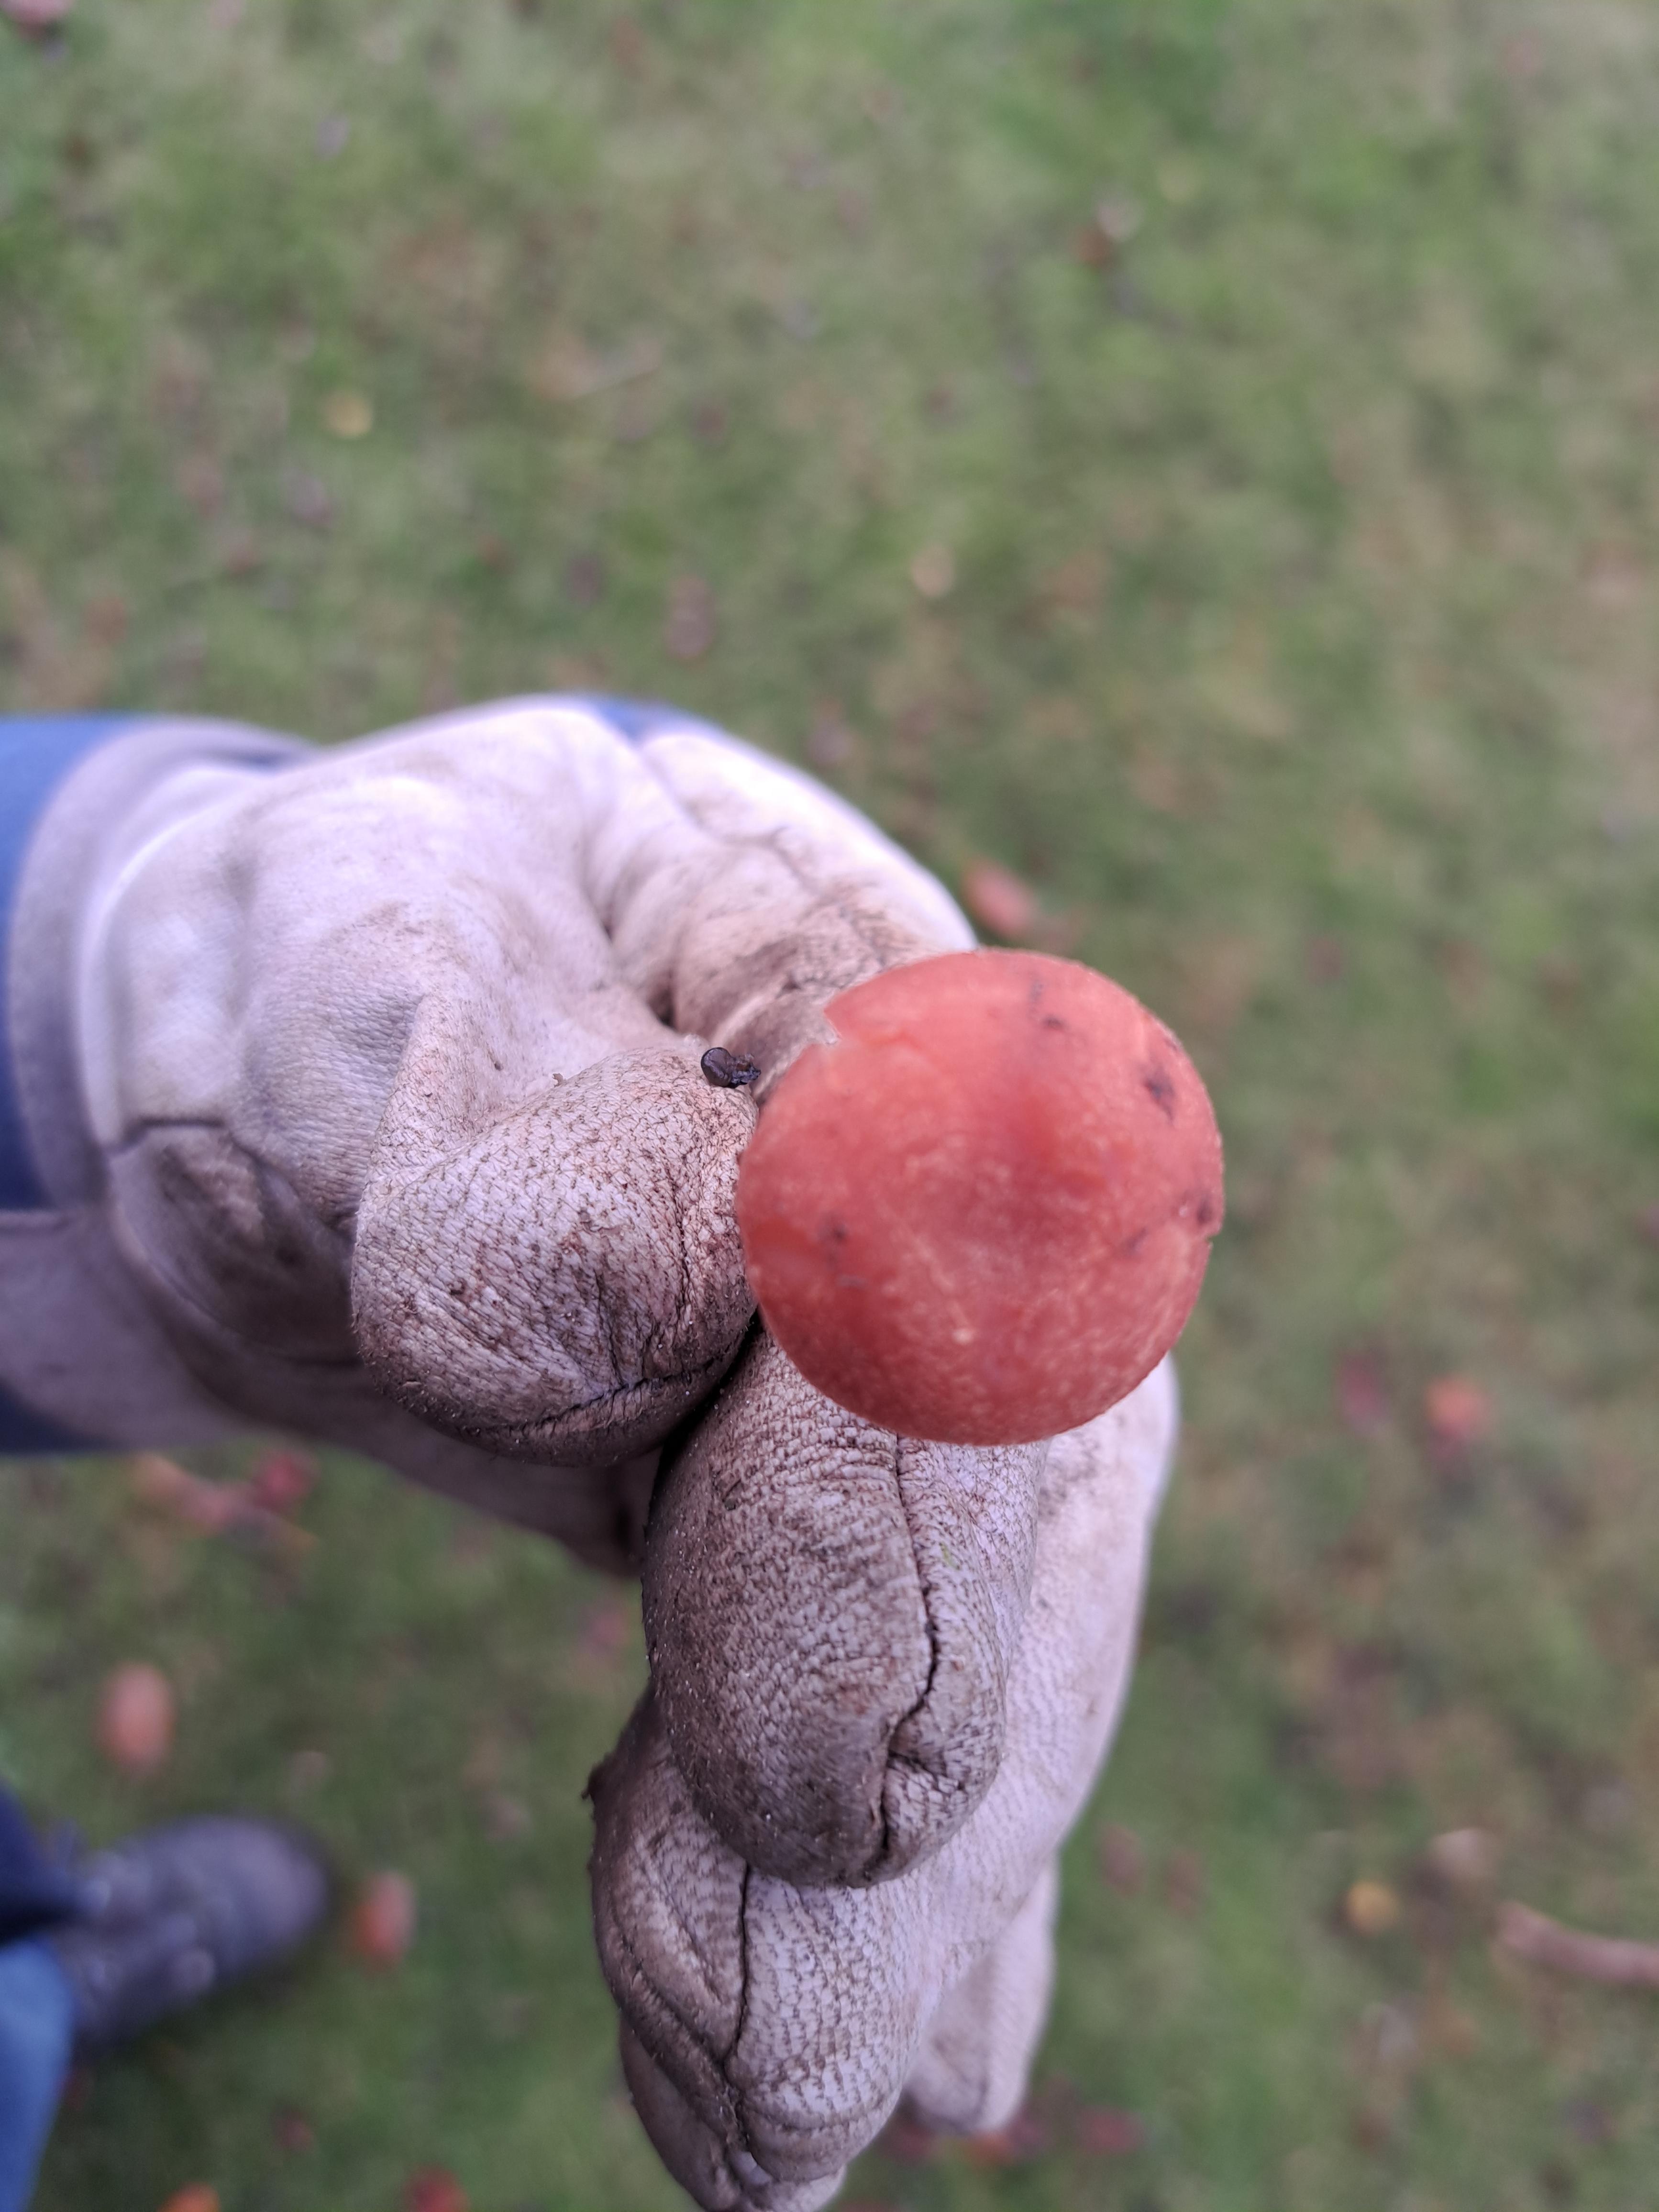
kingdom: Fungi
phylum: Basidiomycota
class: Agaricomycetes
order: Agaricales
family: Hydnangiaceae
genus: Laccaria
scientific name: Laccaria laccata
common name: rød ametysthat
